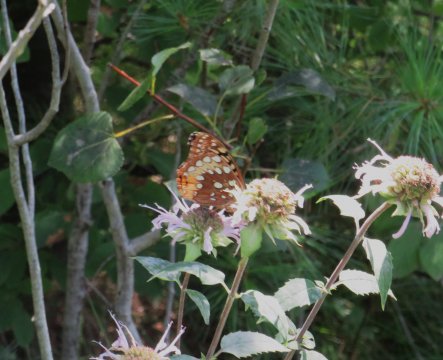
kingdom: Animalia
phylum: Arthropoda
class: Insecta
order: Lepidoptera
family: Nymphalidae
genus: Speyeria
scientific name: Speyeria cybele
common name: Great Spangled Fritillary
